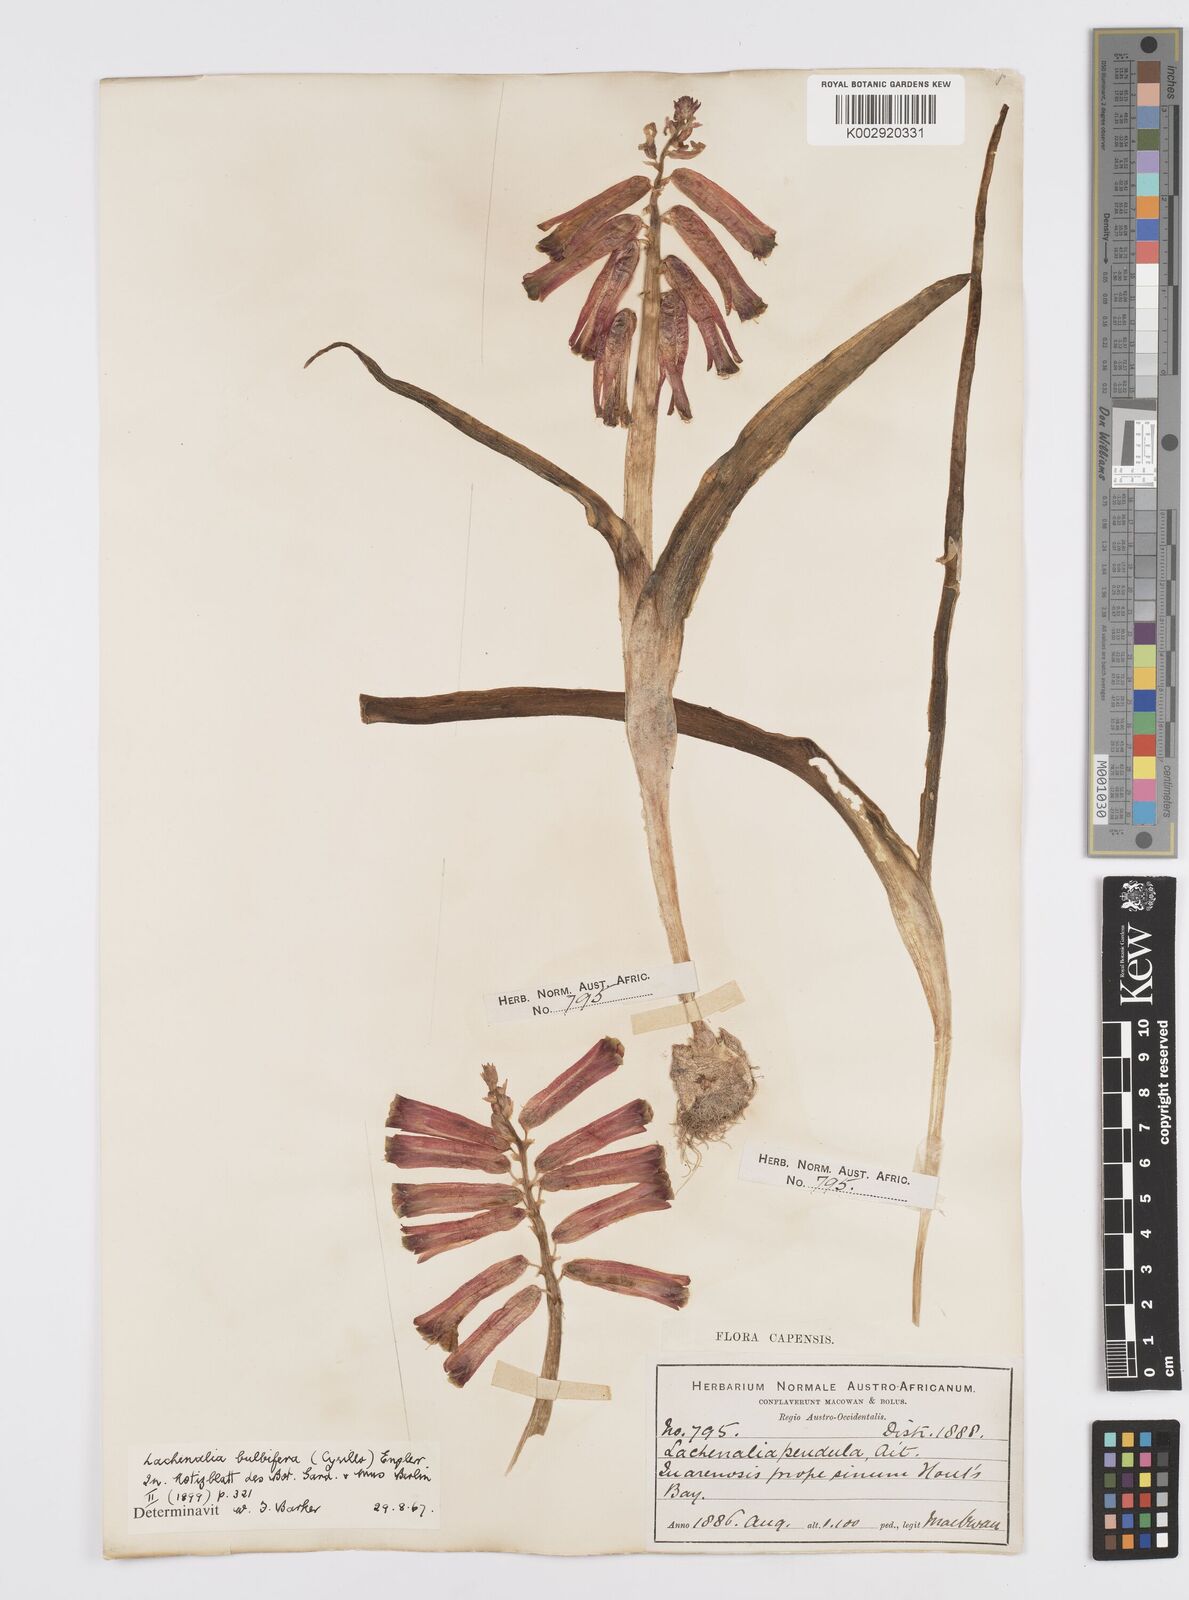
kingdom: Plantae
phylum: Tracheophyta
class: Liliopsida
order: Asparagales
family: Asparagaceae
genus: Lachenalia
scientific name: Lachenalia bulbifera
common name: Red lachenalia
